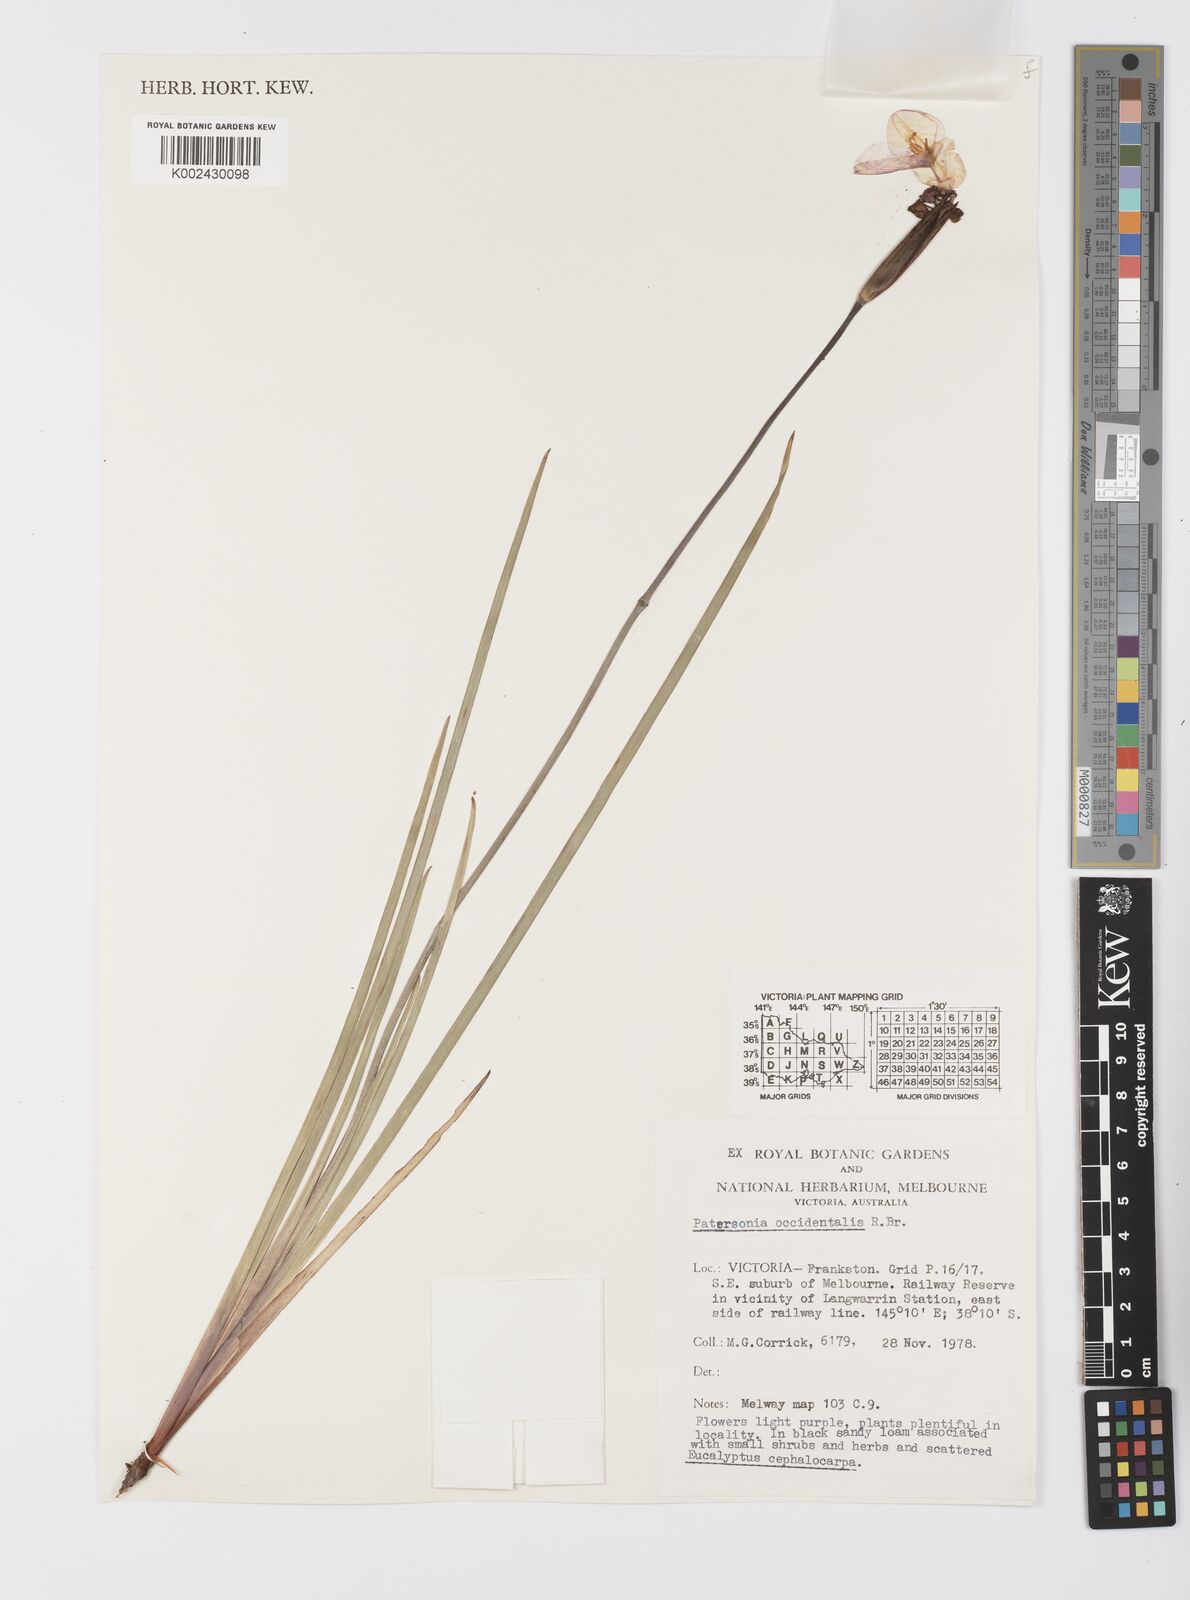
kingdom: Plantae
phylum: Tracheophyta
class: Liliopsida
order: Asparagales
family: Iridaceae
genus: Patersonia
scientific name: Patersonia occidentalis
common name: Long purple-flag
